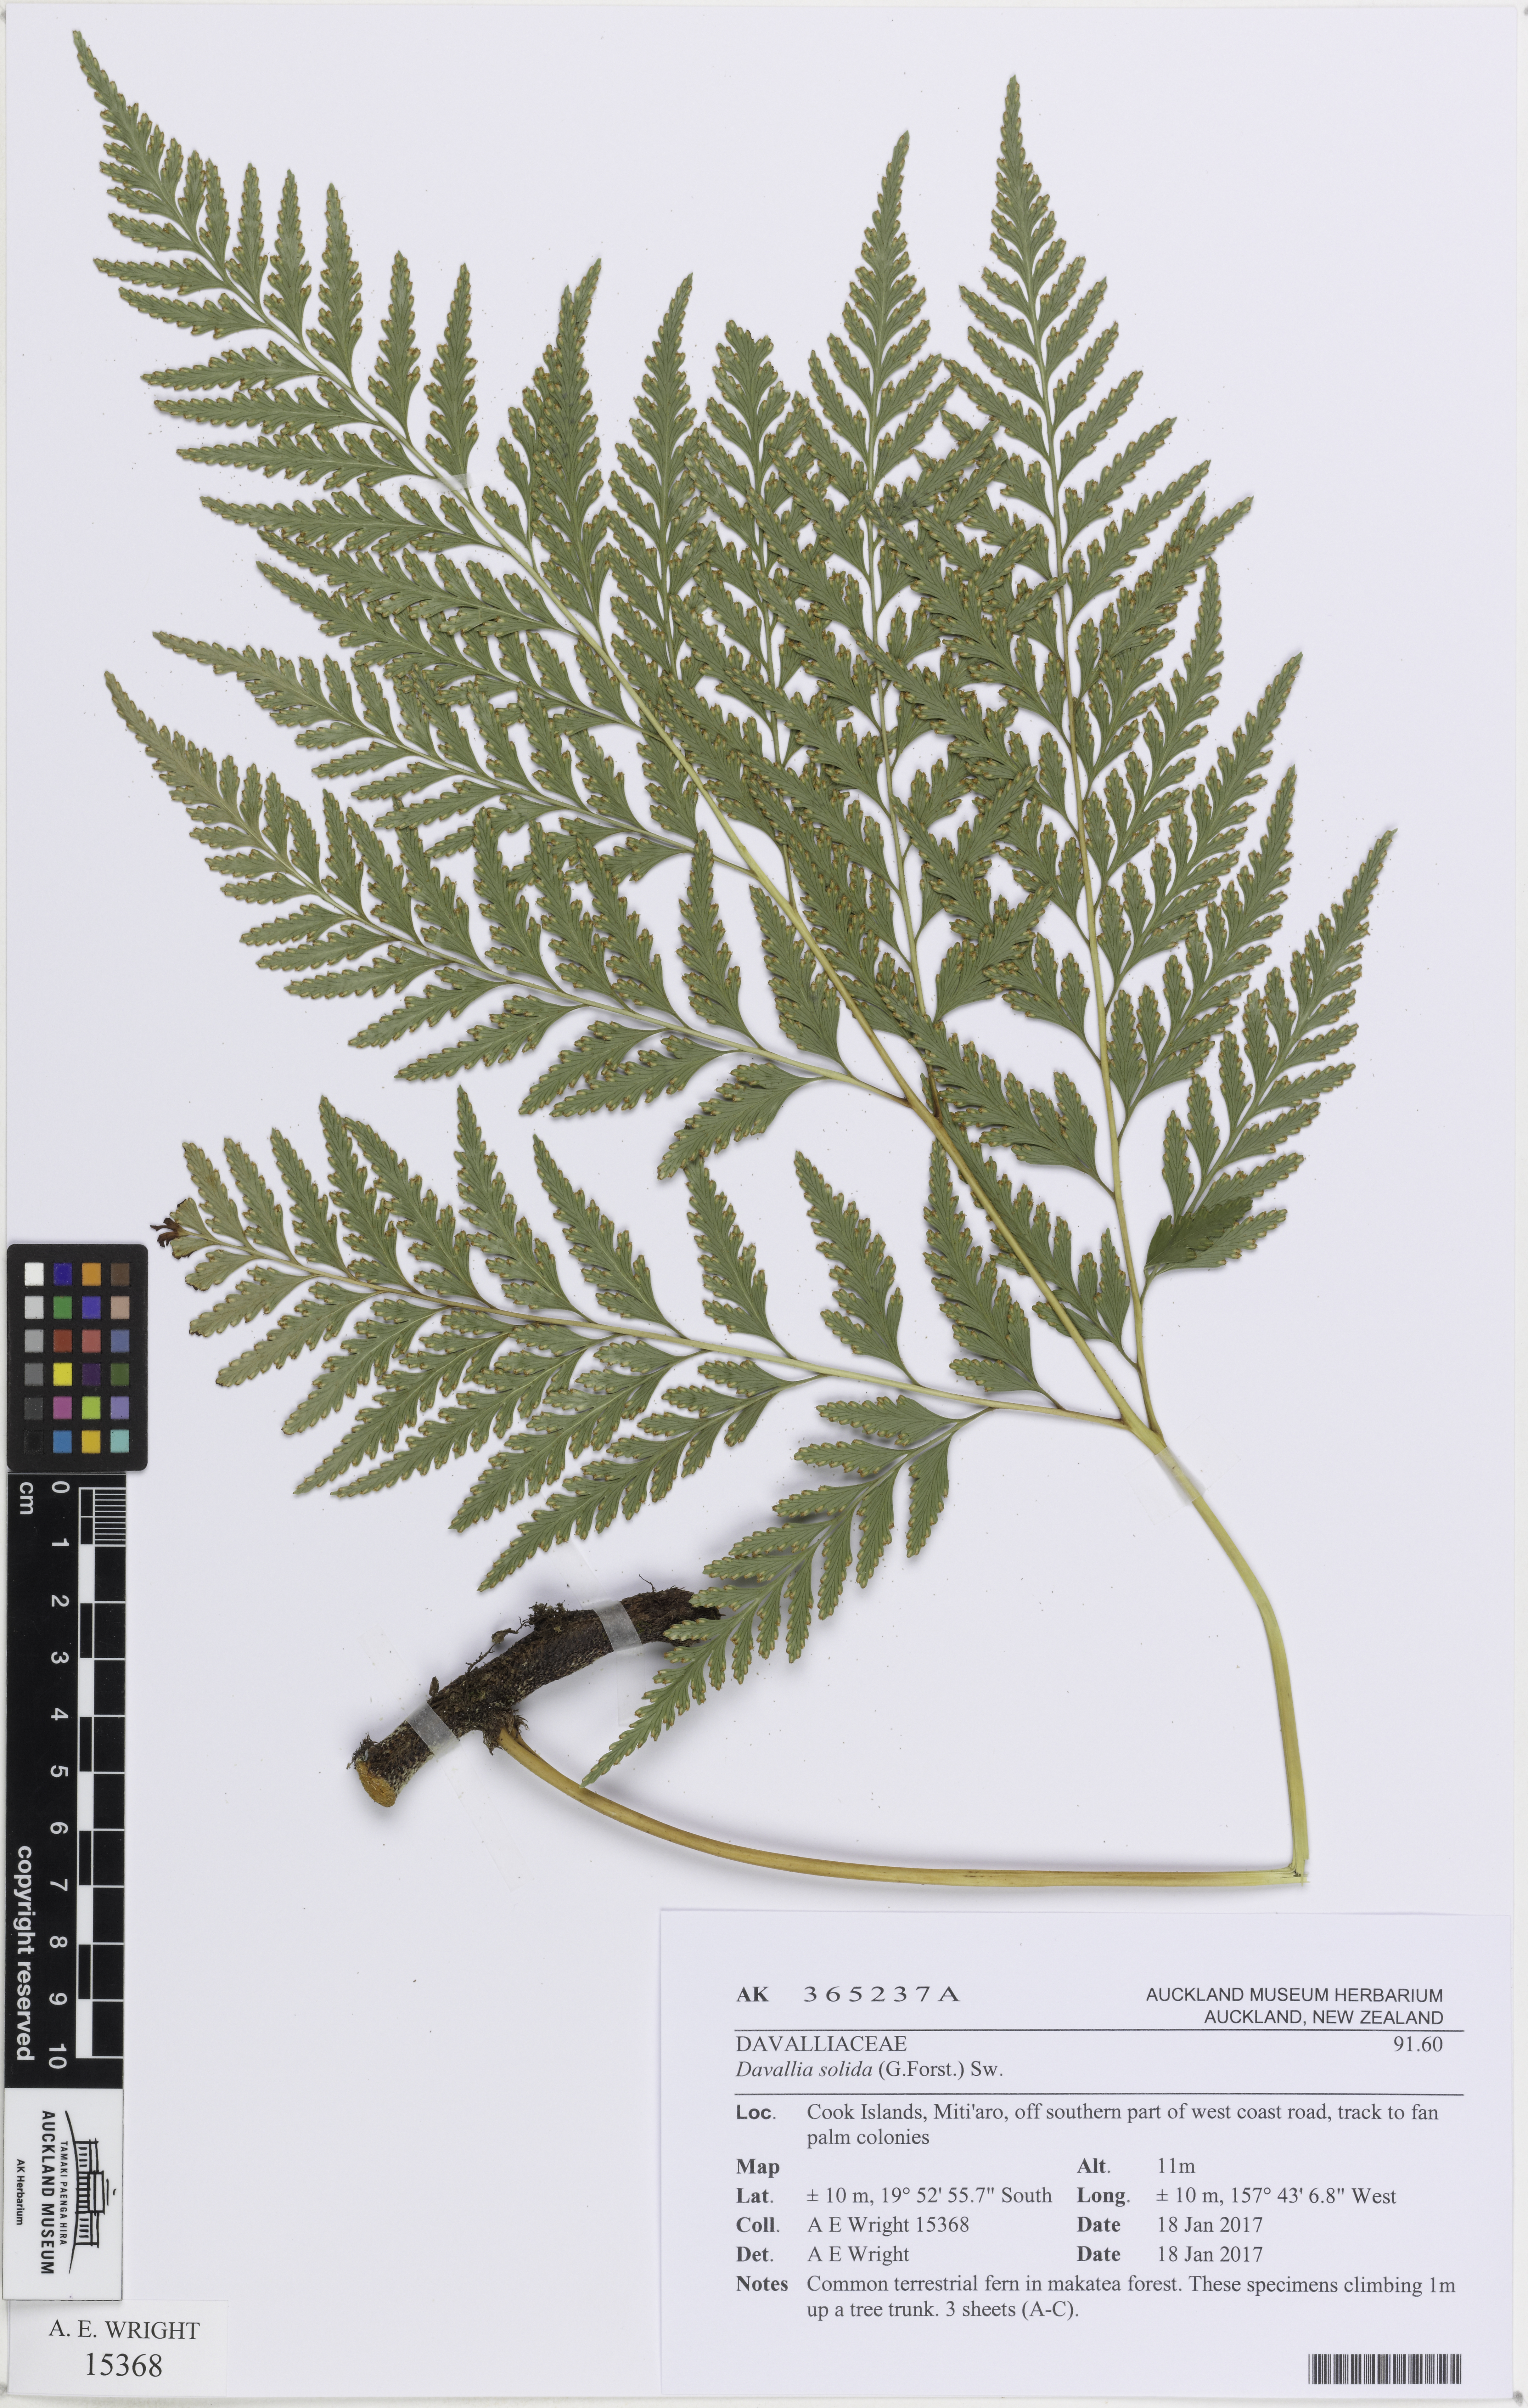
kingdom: Plantae
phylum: Tracheophyta
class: Polypodiopsida
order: Polypodiales
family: Davalliaceae
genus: Davallia
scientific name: Davallia solida
